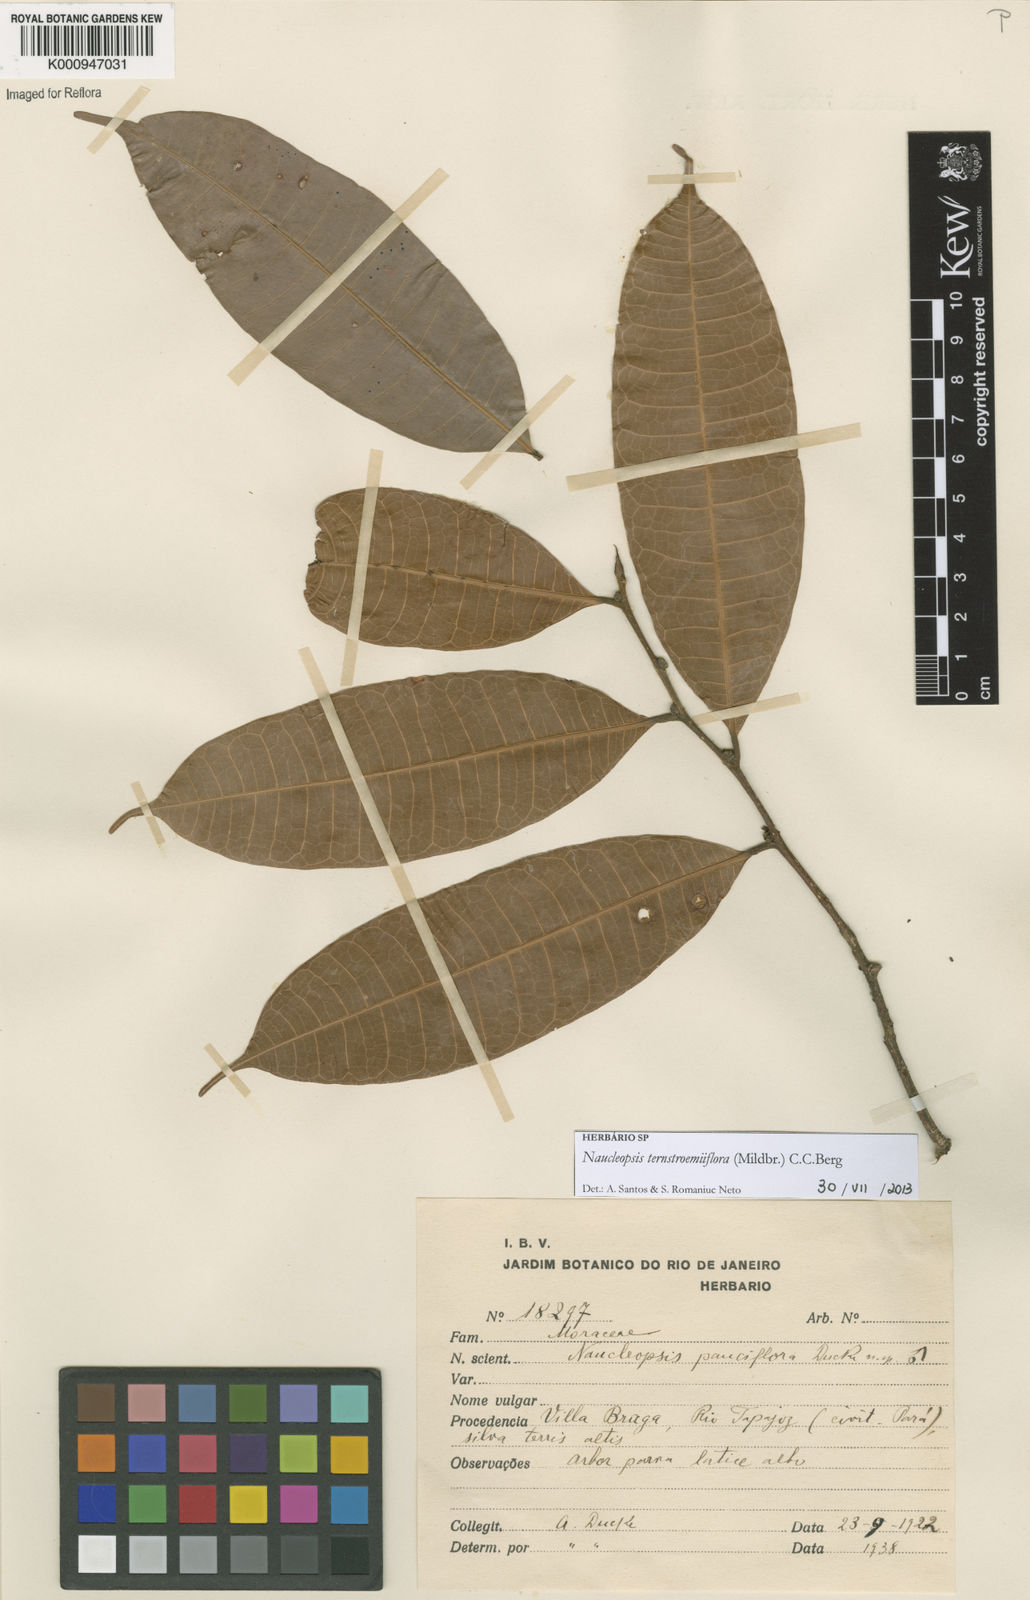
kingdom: Plantae
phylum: Tracheophyta
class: Magnoliopsida
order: Rosales
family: Moraceae
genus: Naucleopsis
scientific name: Naucleopsis ternstroemiiflora
